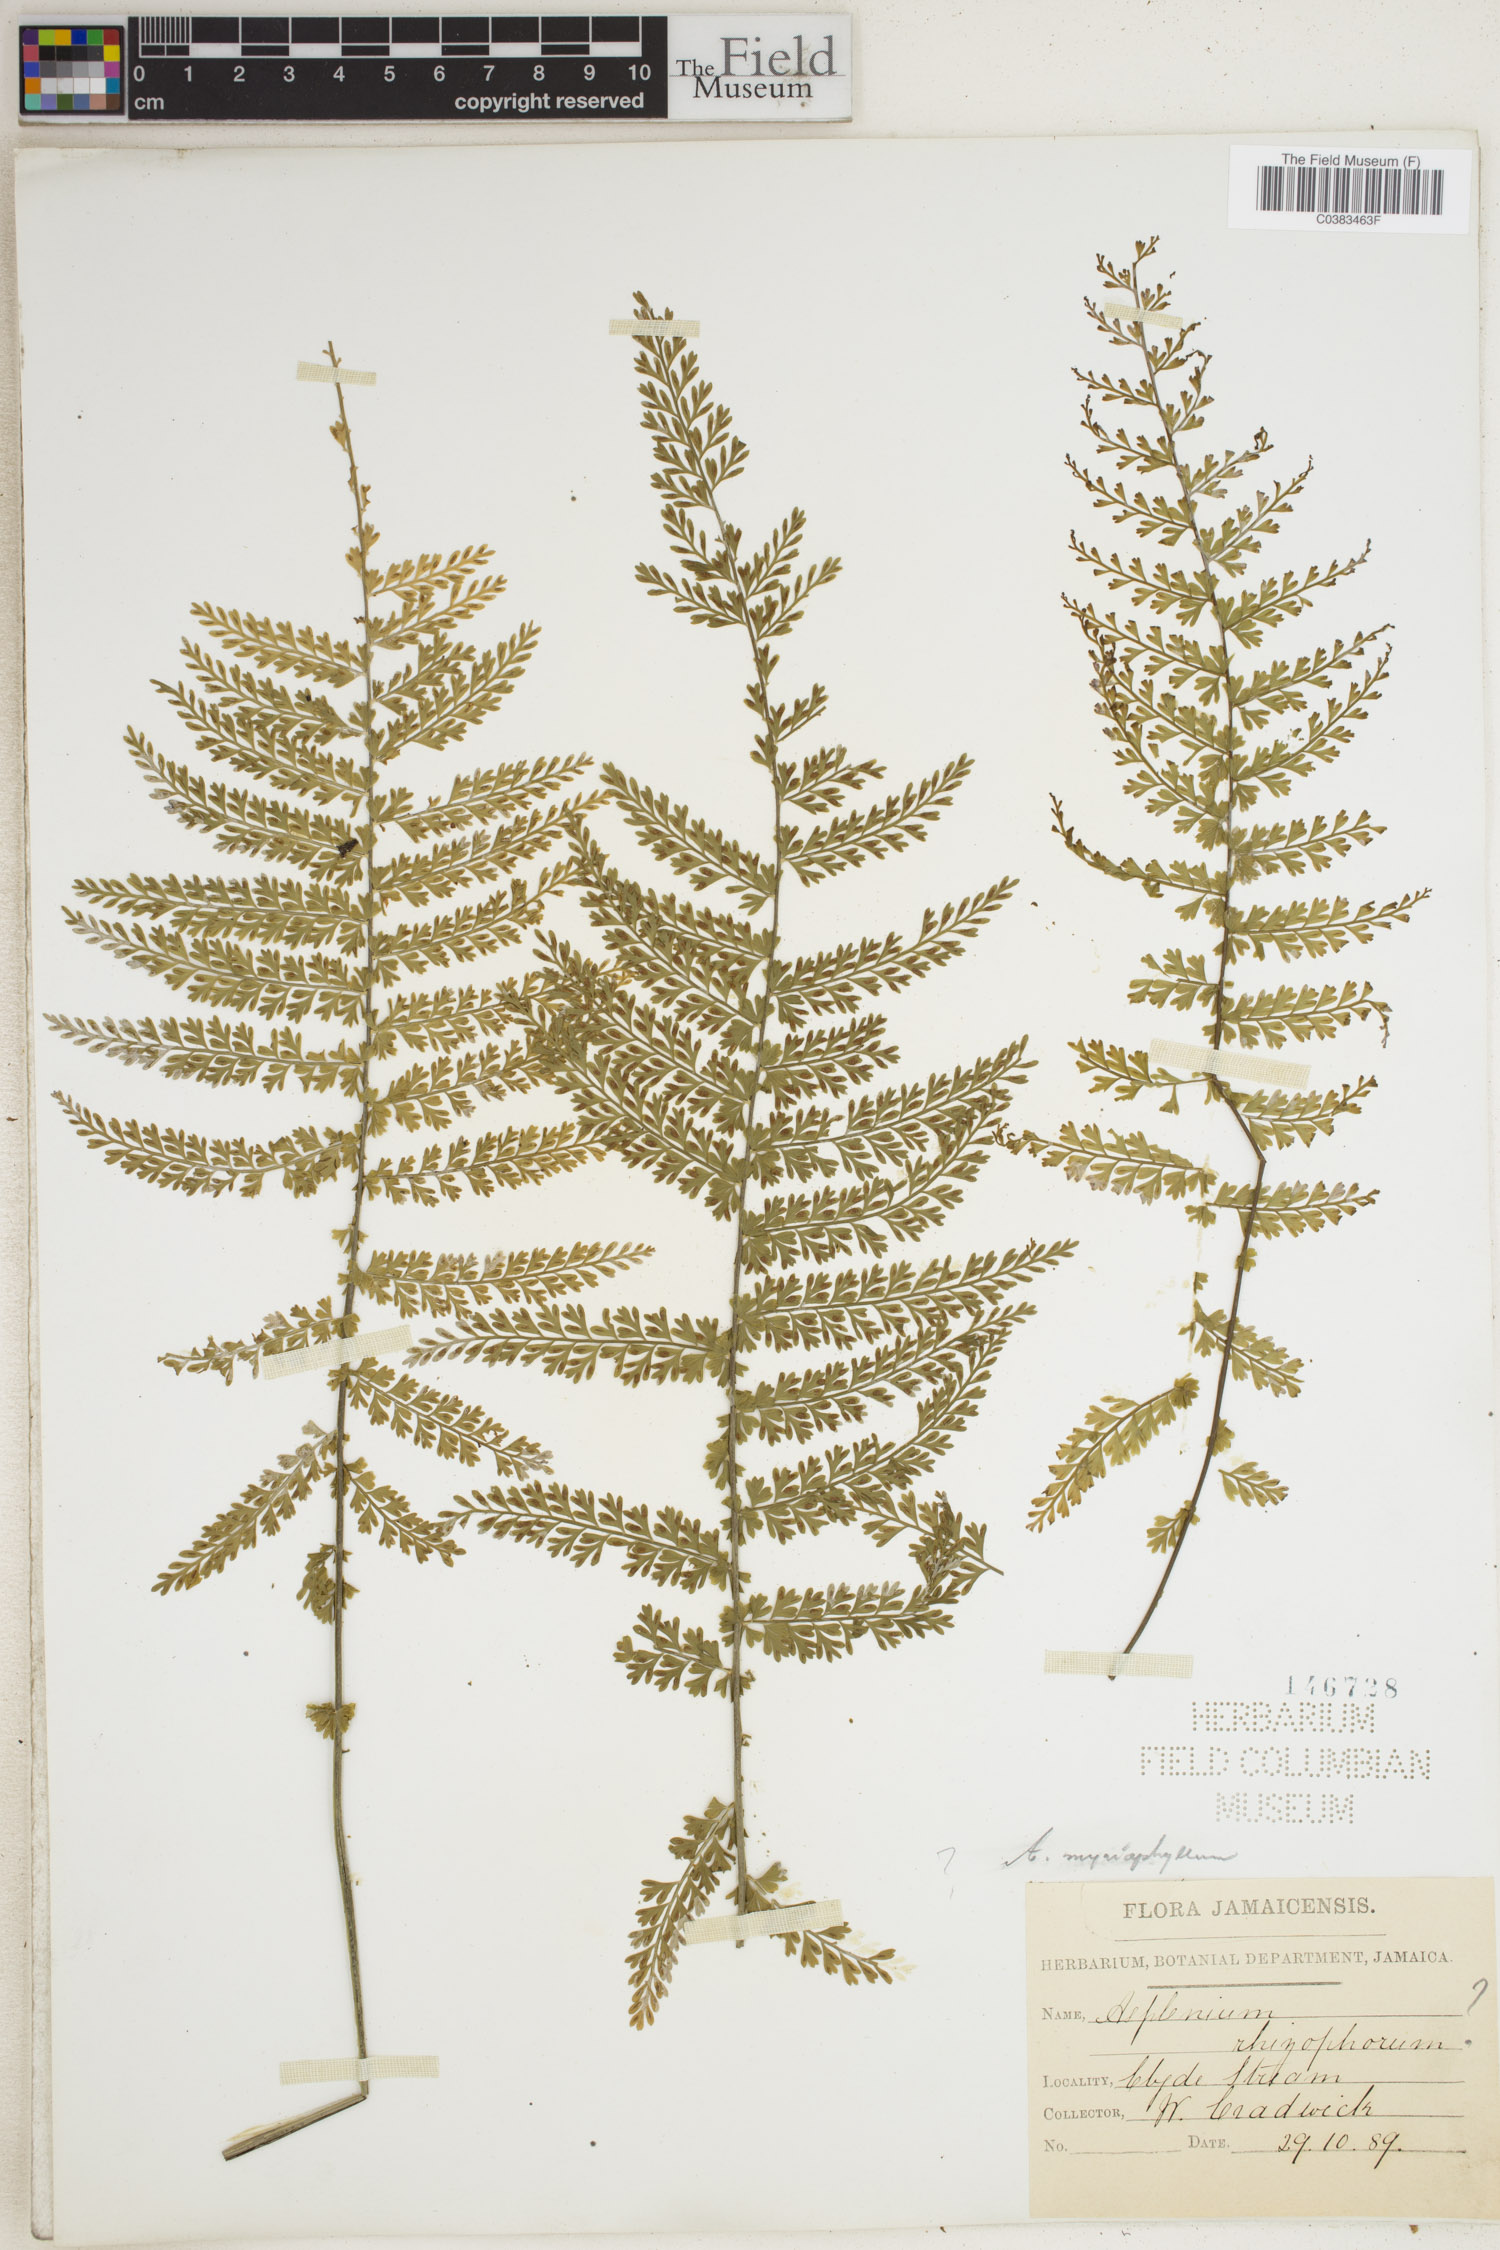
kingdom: Plantae
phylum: Tracheophyta
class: Polypodiopsida
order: Polypodiales
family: Aspleniaceae
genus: Asplenium
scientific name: Asplenium myriophyllum
